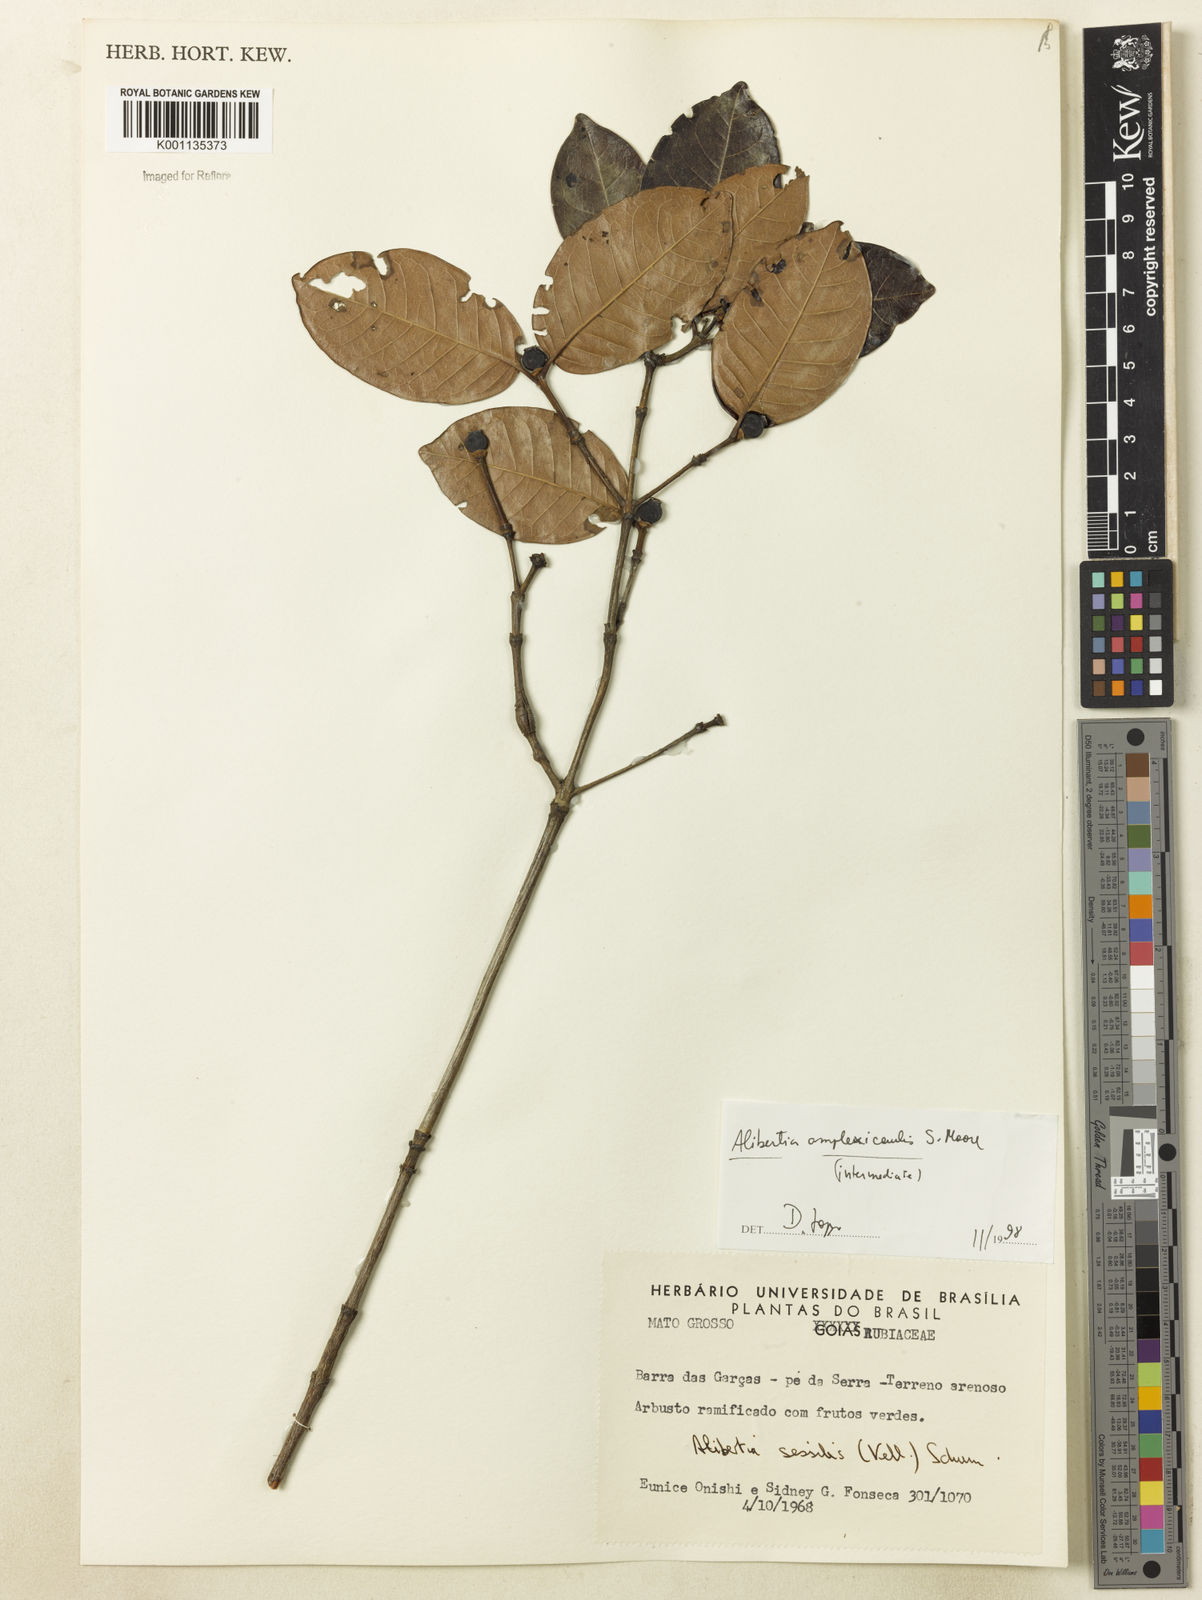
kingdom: Plantae
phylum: Tracheophyta
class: Magnoliopsida
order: Gentianales
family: Rubiaceae
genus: Cordiera
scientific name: Cordiera humilis
